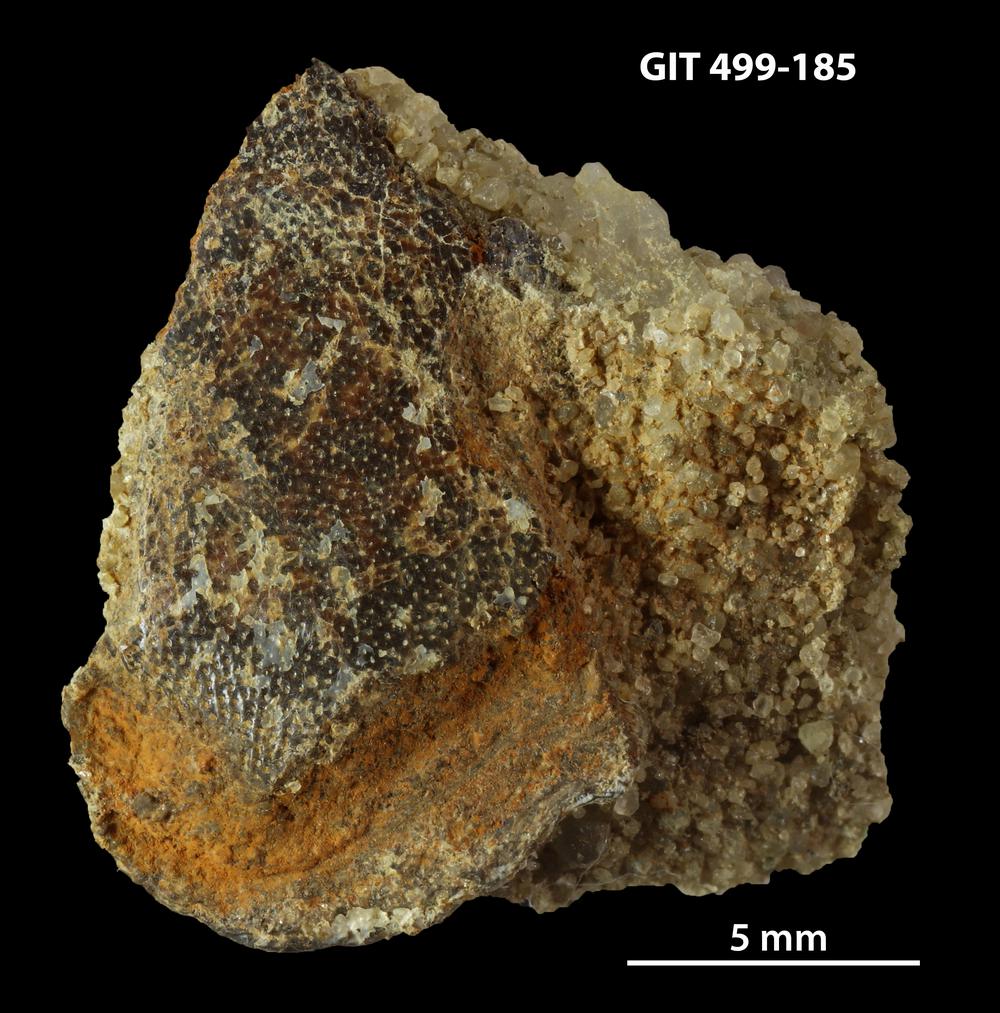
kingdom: Animalia
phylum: Chordata
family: Porolepididae
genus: Porolepis
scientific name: Porolepis
